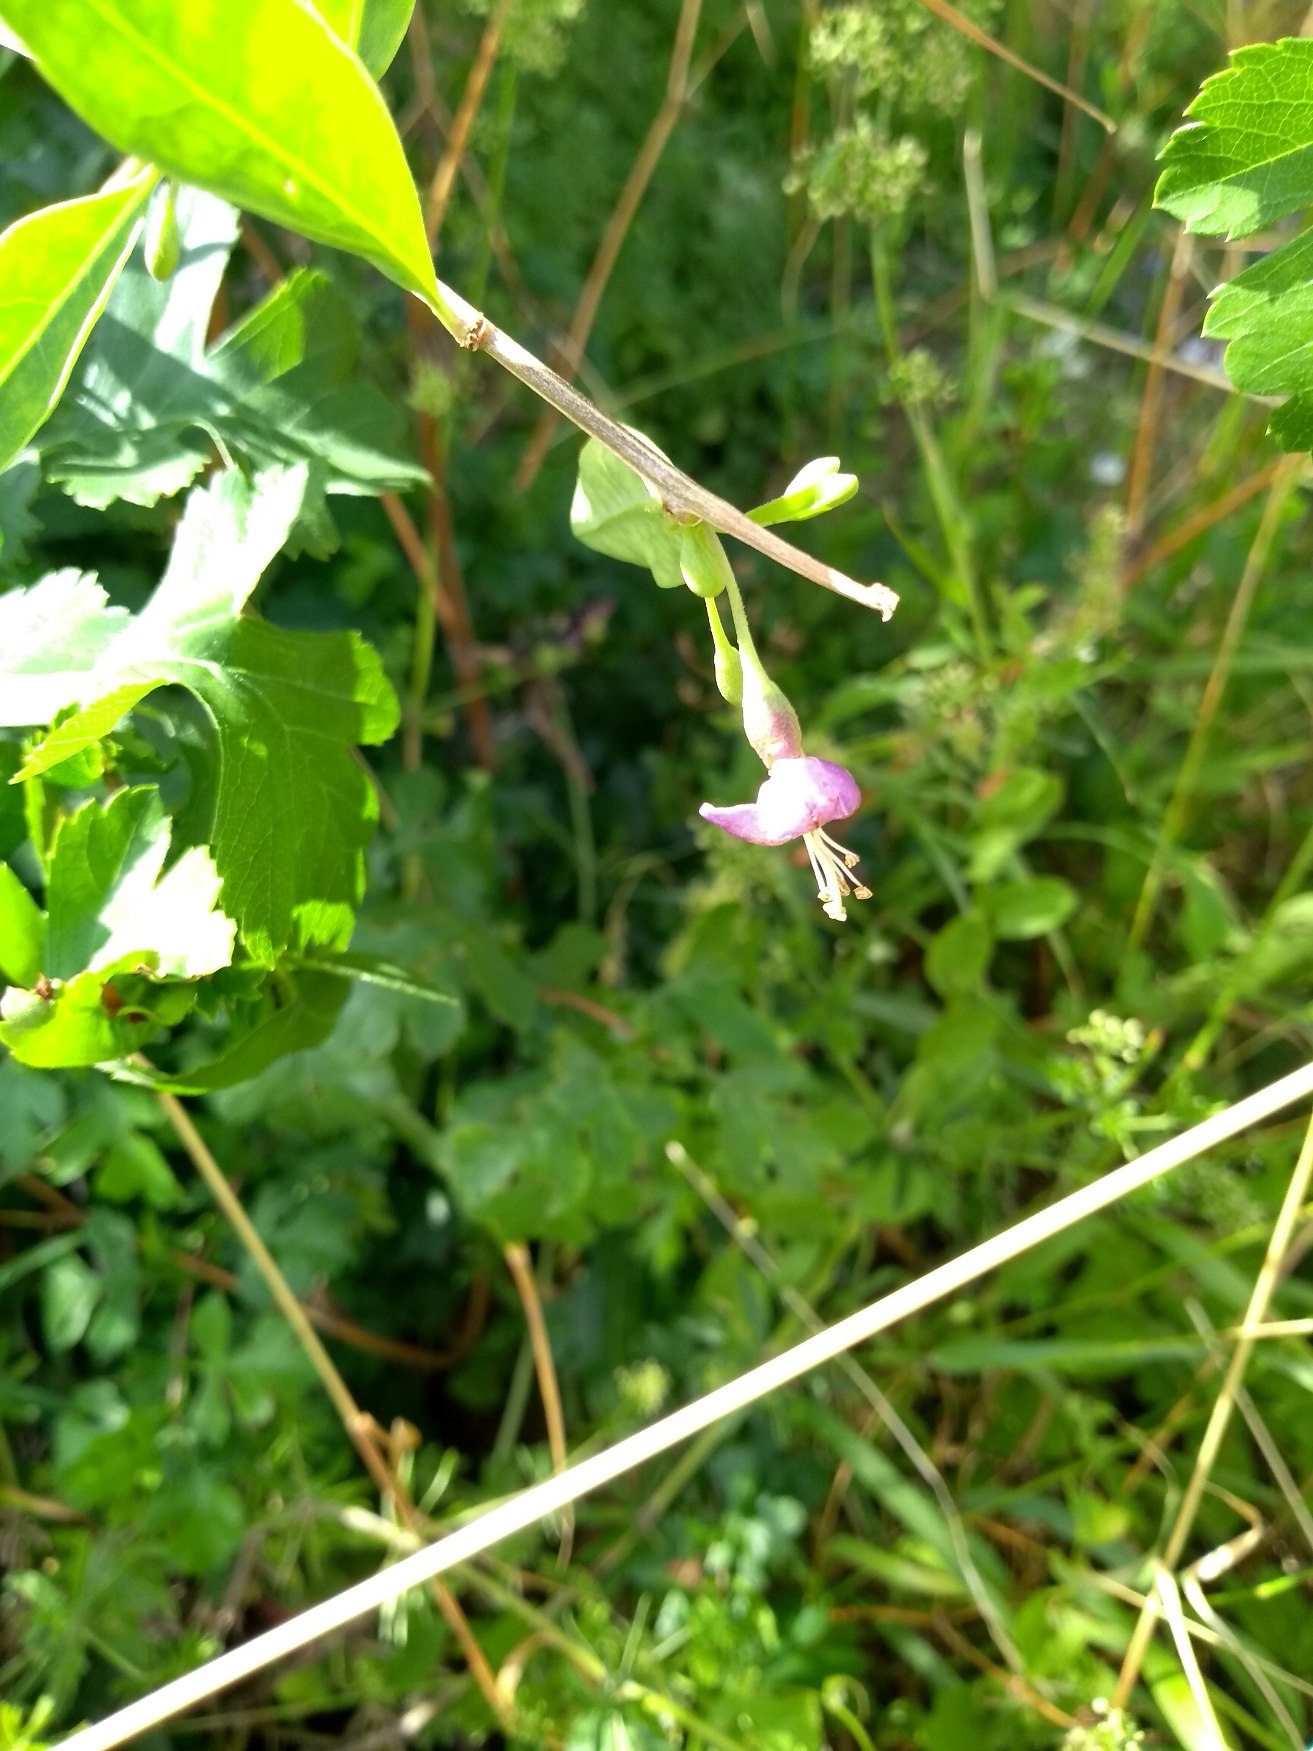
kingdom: Plantae
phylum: Tracheophyta
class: Magnoliopsida
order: Solanales
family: Solanaceae
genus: Lycium
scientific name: Lycium barbarum
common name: Bukketorn
